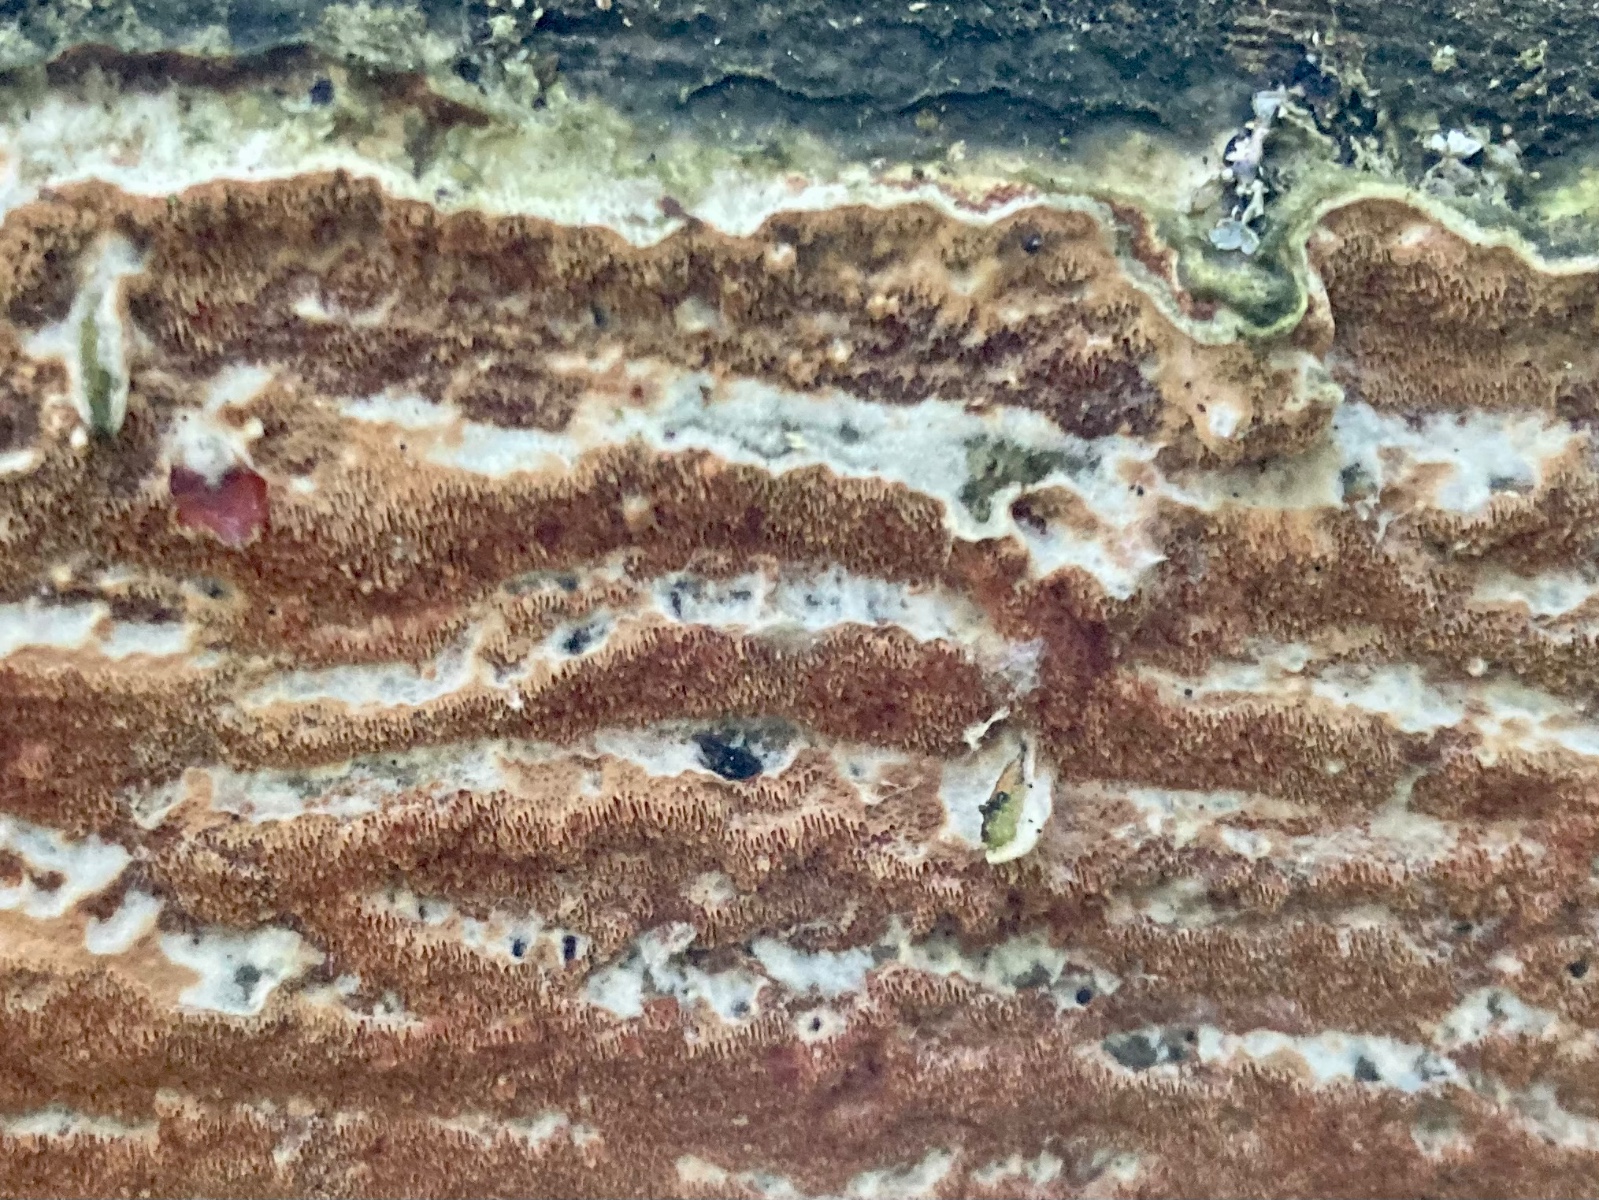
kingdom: Fungi
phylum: Basidiomycota
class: Agaricomycetes
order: Polyporales
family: Irpicaceae
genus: Meruliopsis
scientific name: Meruliopsis taxicola
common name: purpurbrun foldporesvamp
